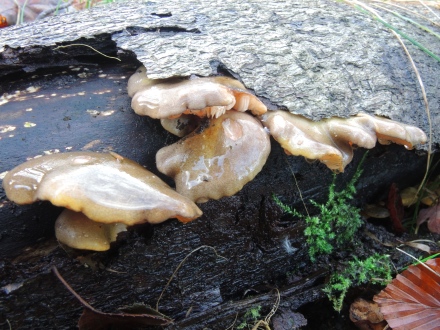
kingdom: Fungi
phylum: Basidiomycota
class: Agaricomycetes
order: Agaricales
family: Sarcomyxaceae
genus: Sarcomyxa
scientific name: Sarcomyxa serotina
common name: gummihat
